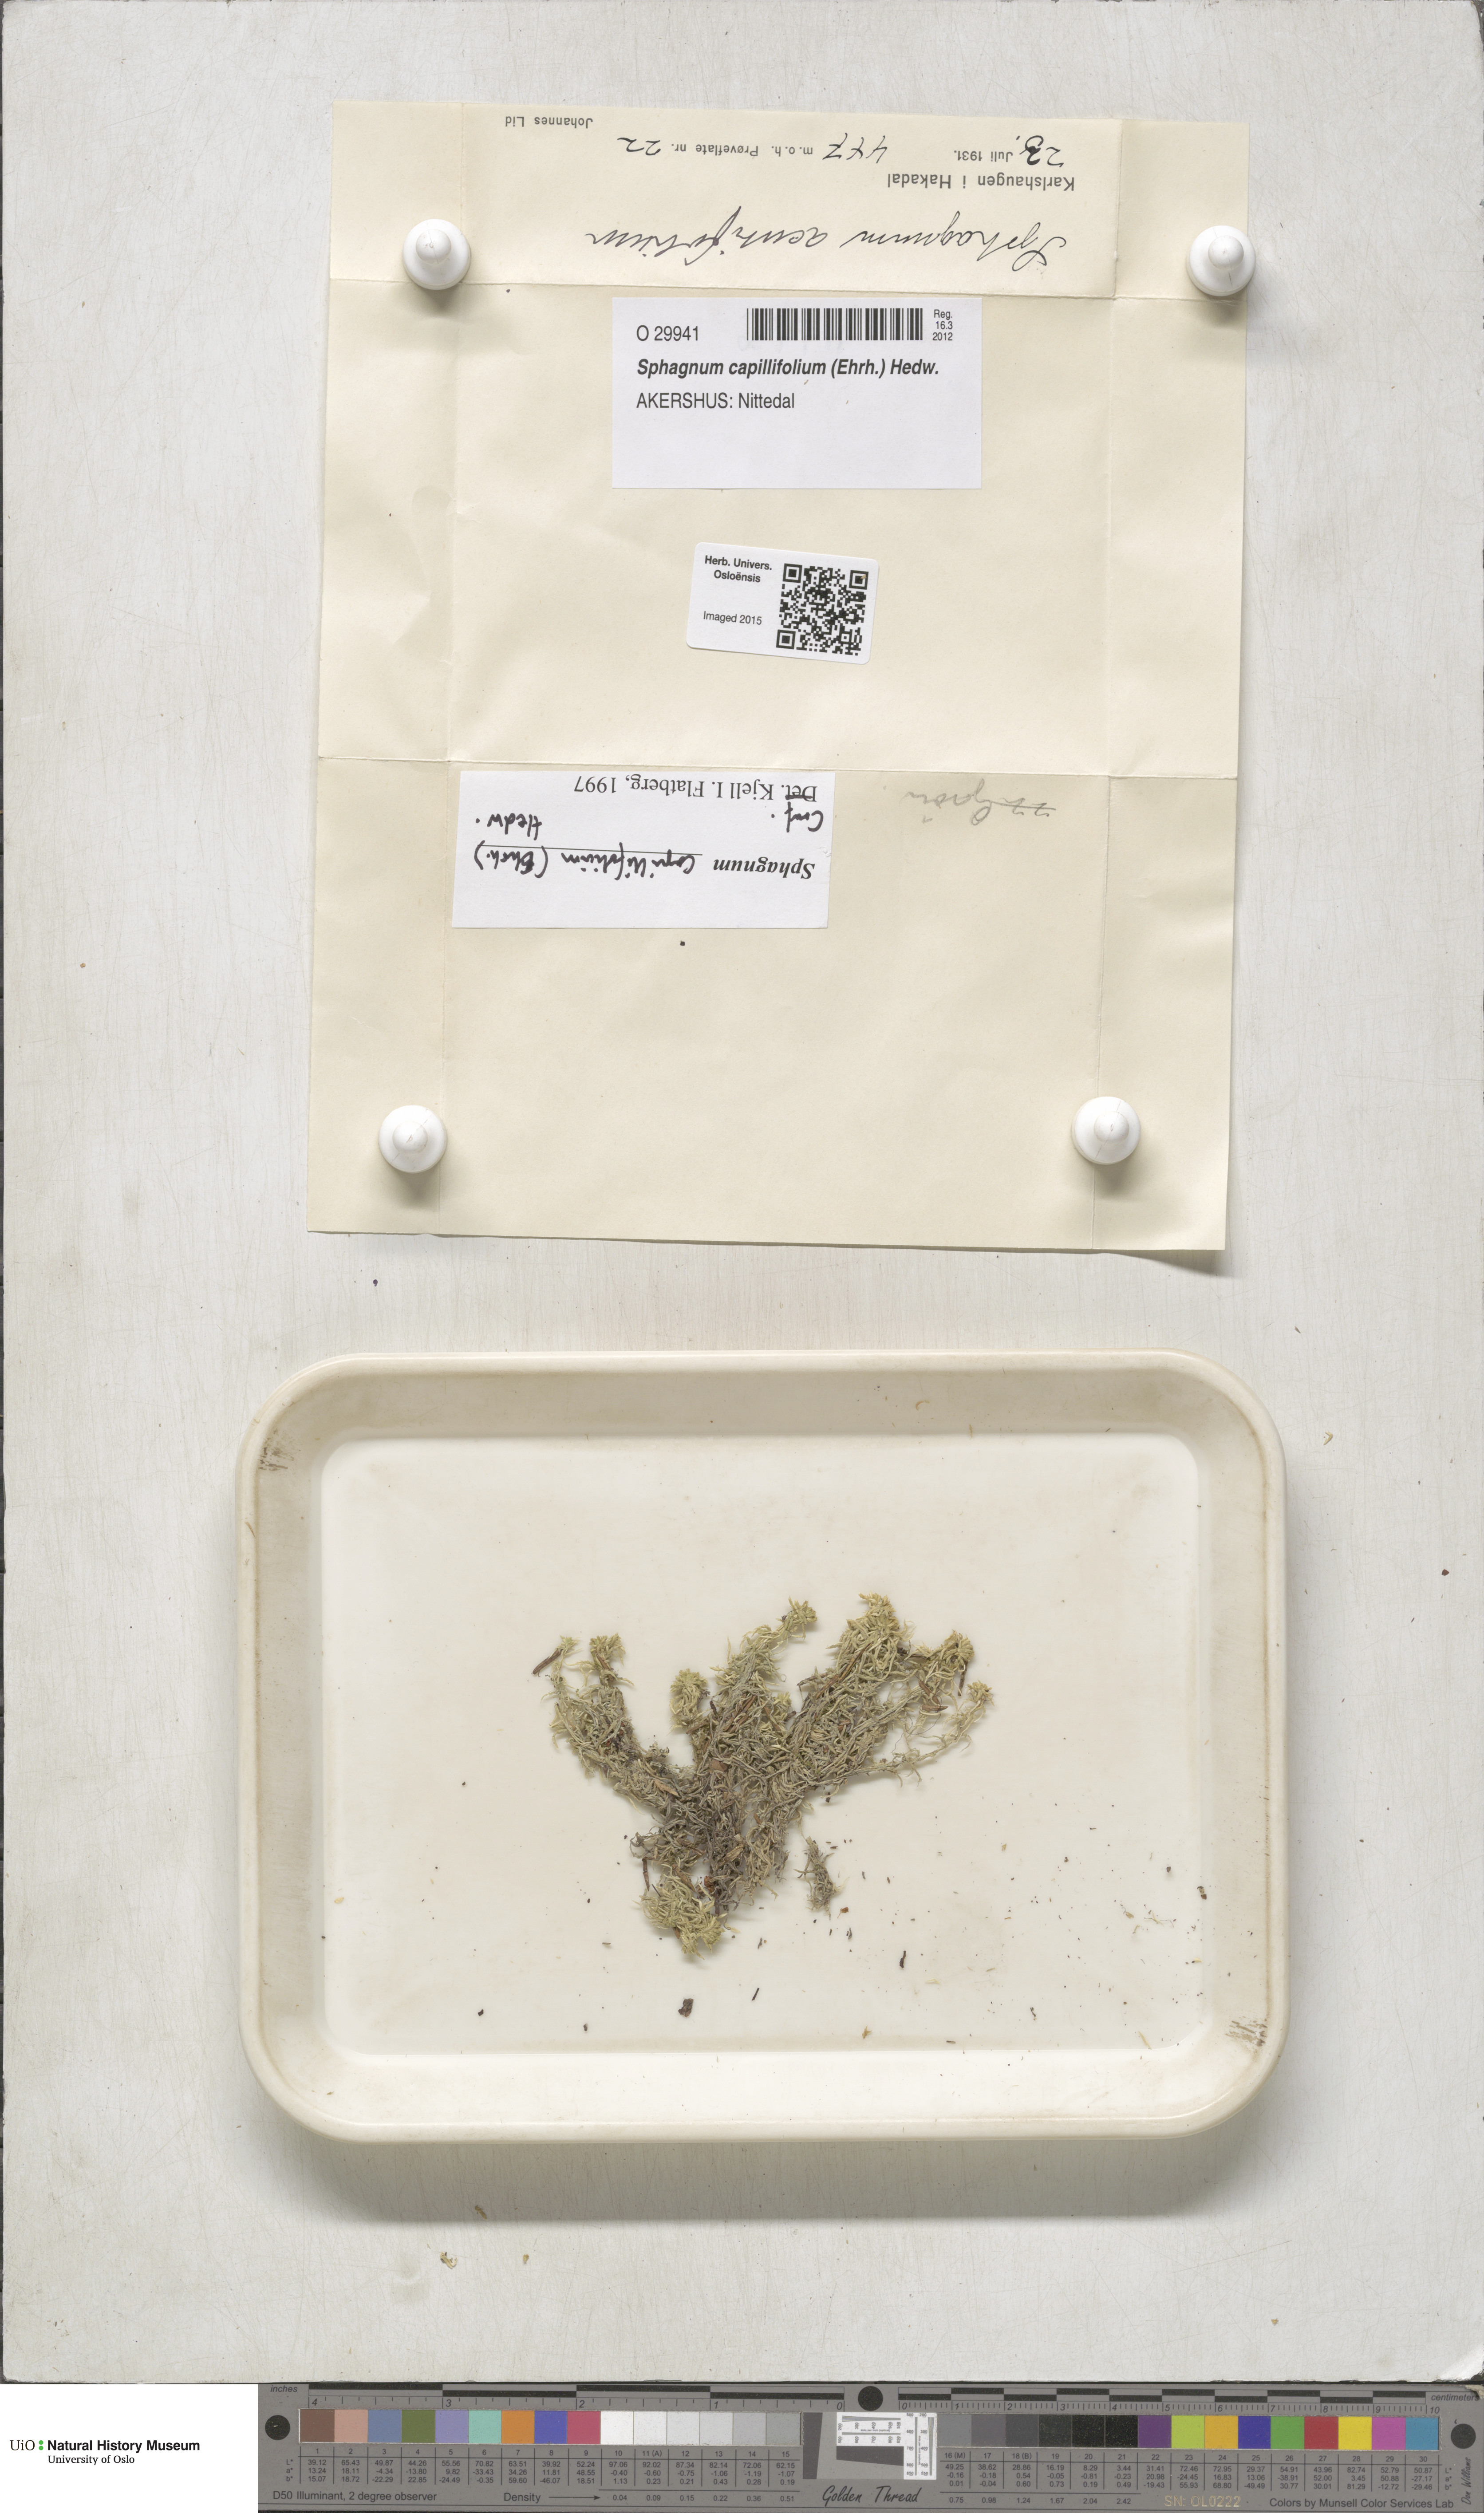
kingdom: Plantae
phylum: Bryophyta
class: Sphagnopsida
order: Sphagnales
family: Sphagnaceae
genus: Sphagnum
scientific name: Sphagnum capillifolium
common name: Small red peat moss
